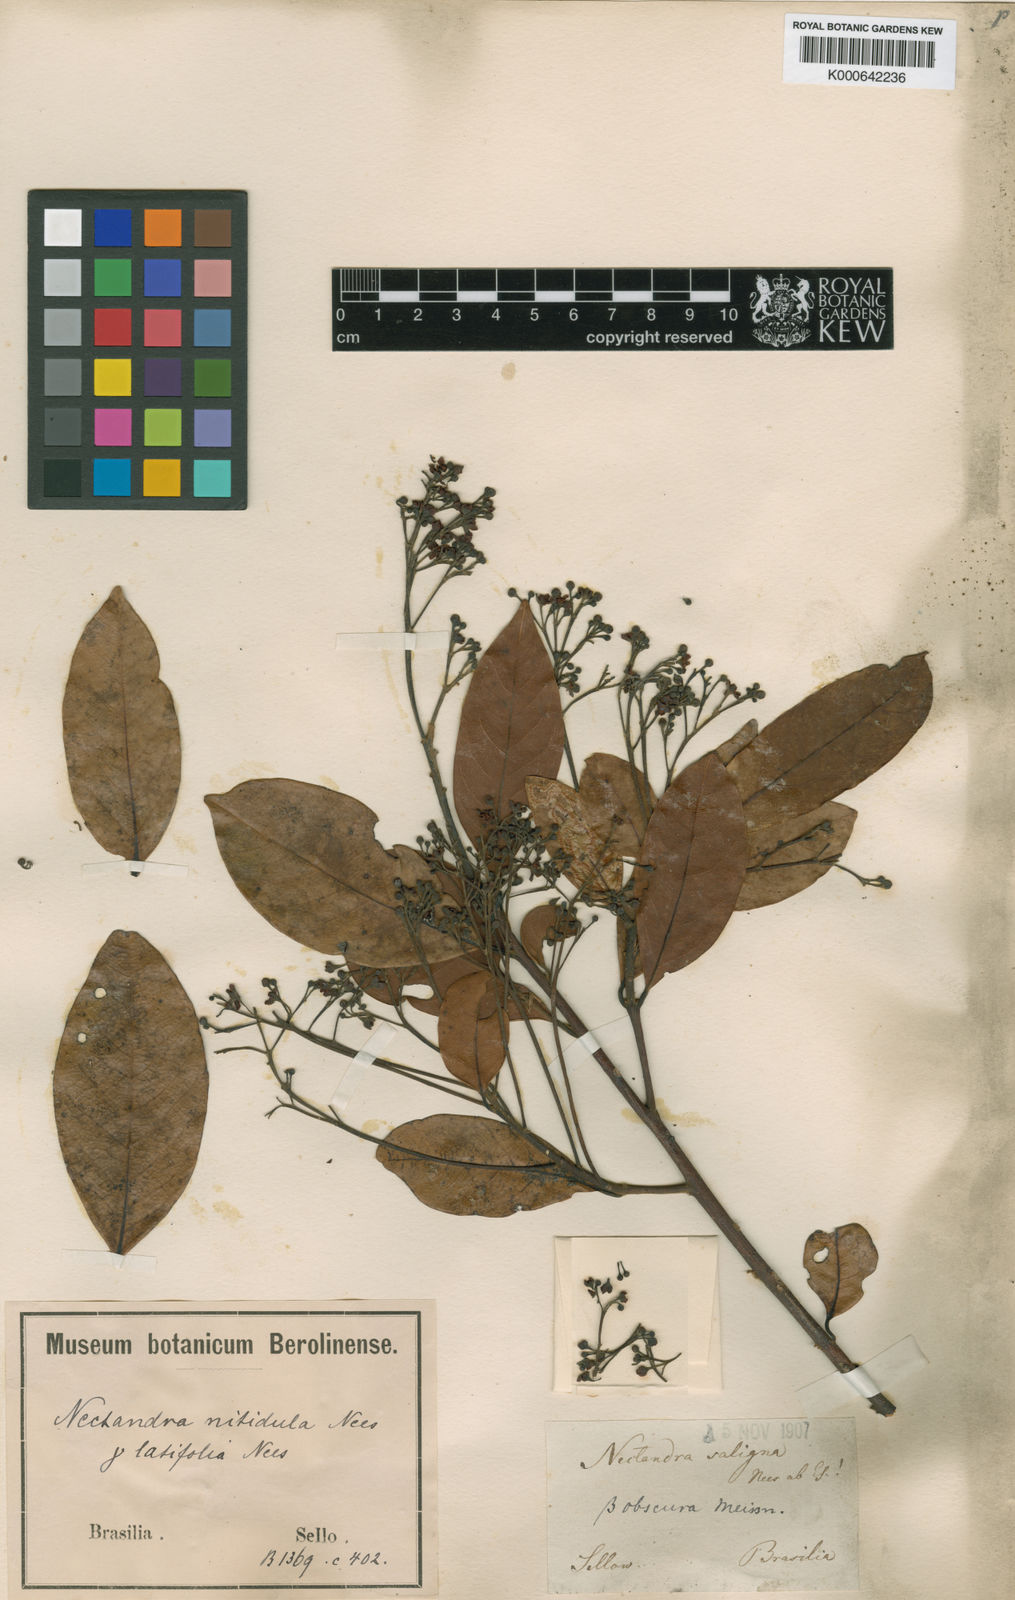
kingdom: Plantae
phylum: Tracheophyta
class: Magnoliopsida
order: Laurales
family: Lauraceae
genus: Nectandra
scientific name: Nectandra
